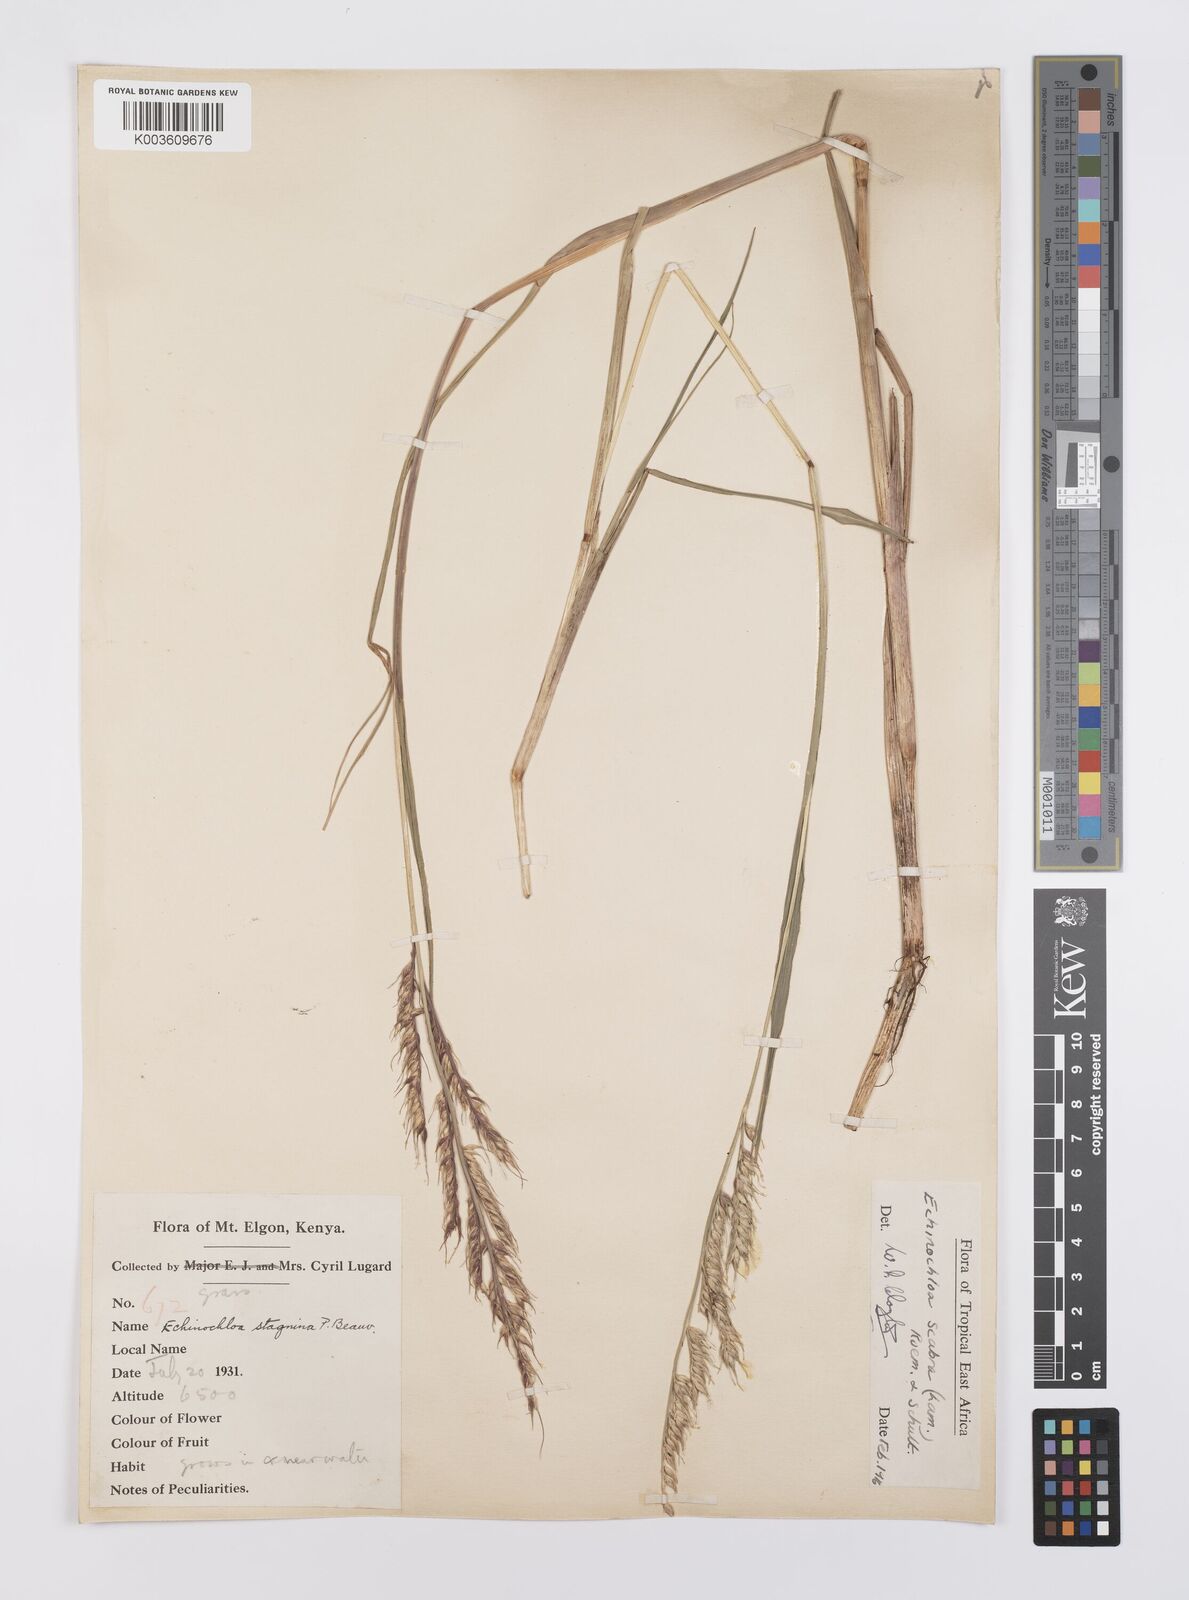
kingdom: Plantae
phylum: Tracheophyta
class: Liliopsida
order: Poales
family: Poaceae
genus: Echinochloa
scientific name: Echinochloa stagnina
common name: Burgu grass
